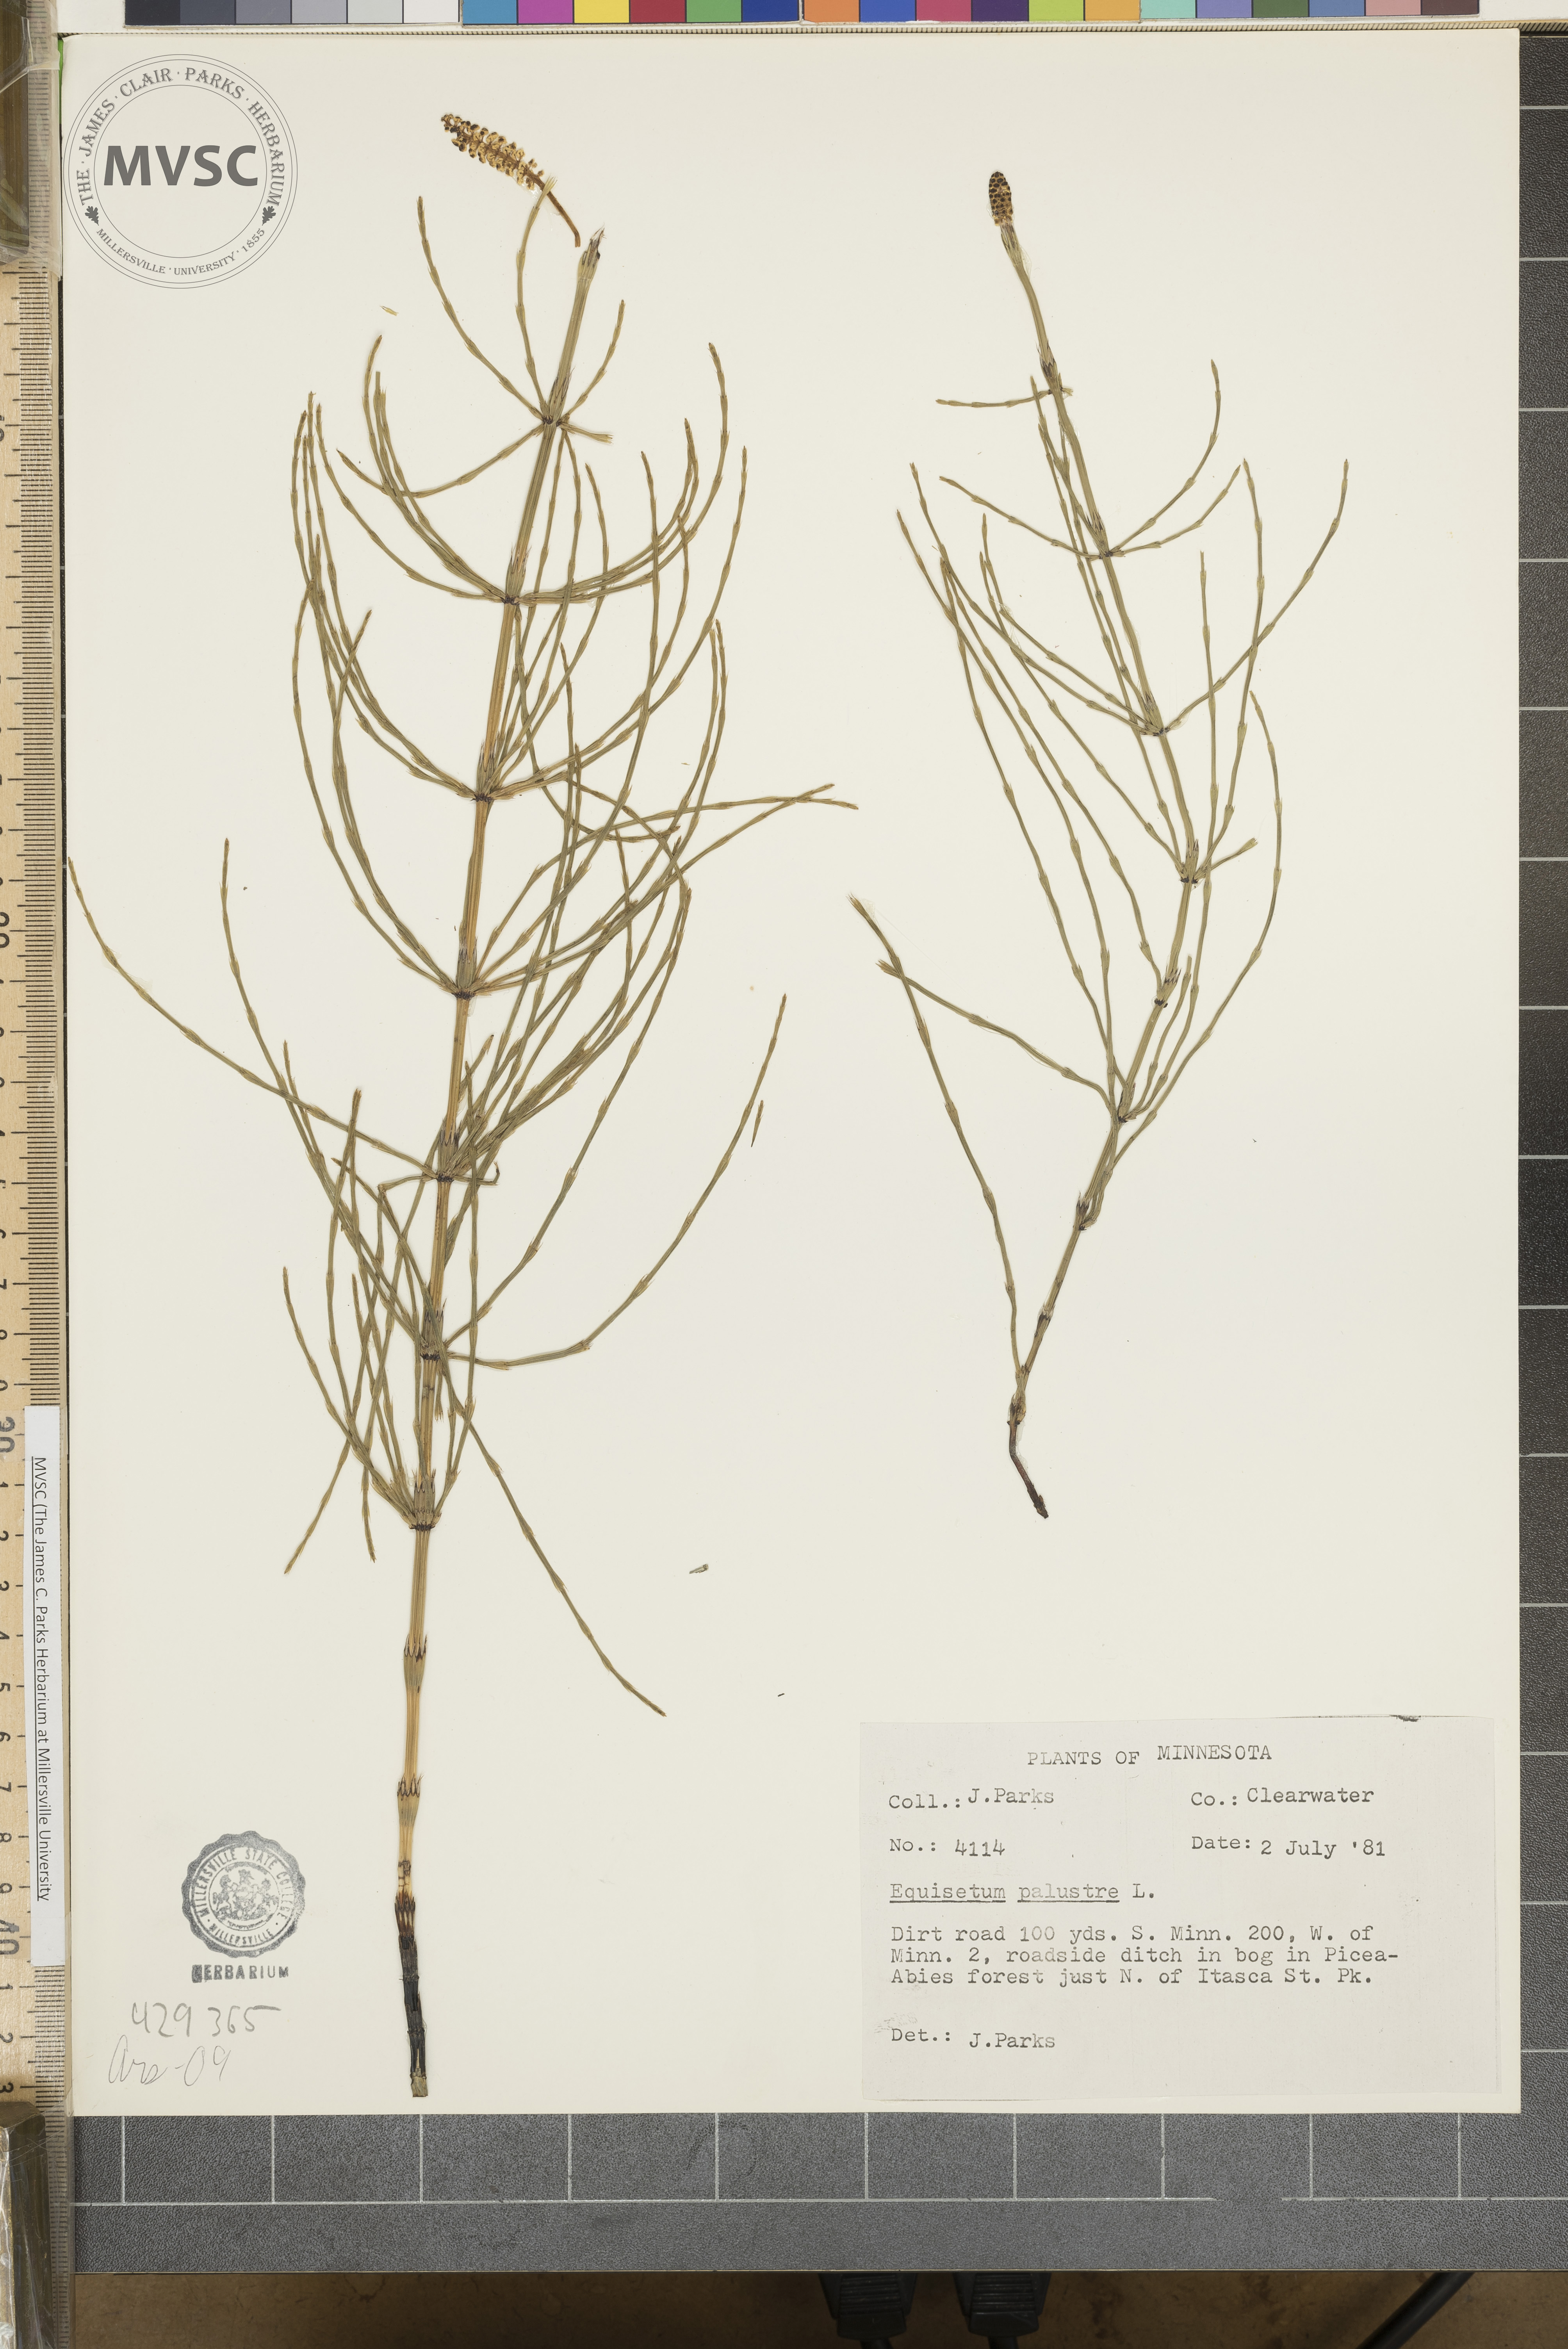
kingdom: Plantae
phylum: Tracheophyta
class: Polypodiopsida
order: Equisetales
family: Equisetaceae
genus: Equisetum
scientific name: Equisetum palustre
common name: Marsh horsetail
